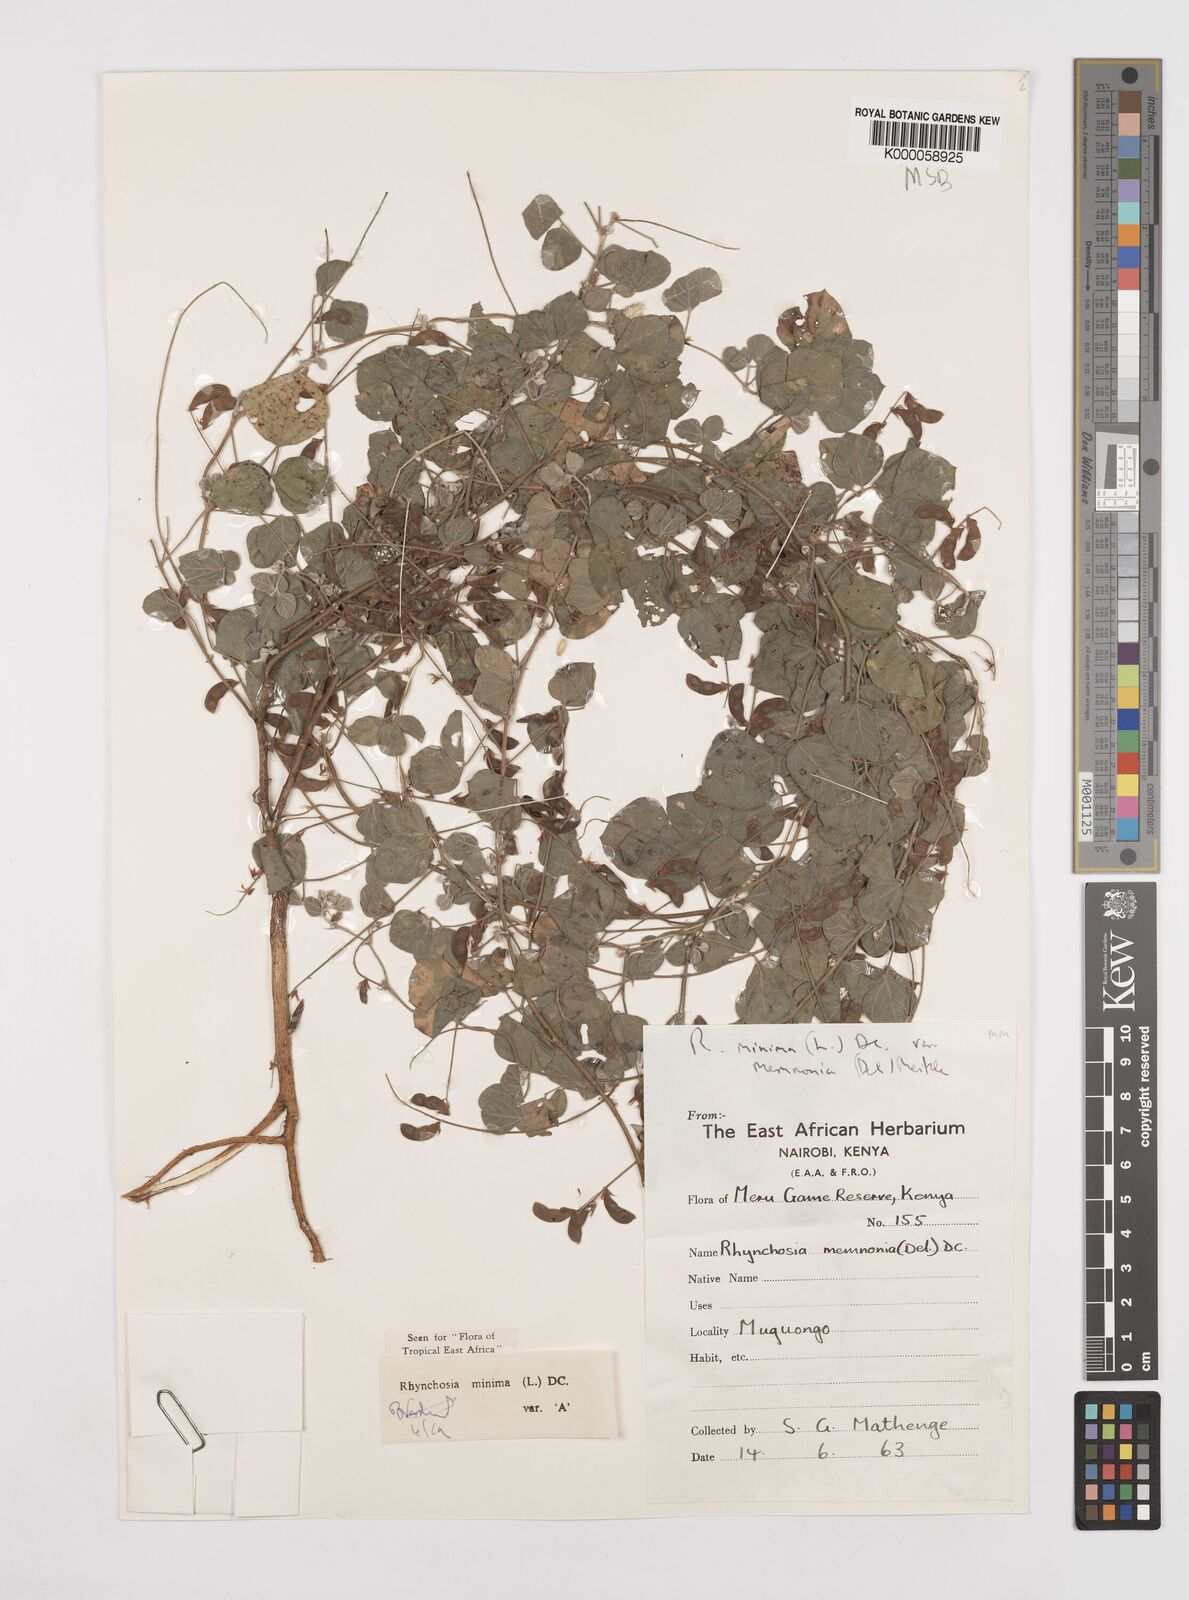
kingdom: Plantae
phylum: Tracheophyta
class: Magnoliopsida
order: Fabales
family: Fabaceae
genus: Rhynchosia
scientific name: Rhynchosia minima
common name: Least snoutbean
